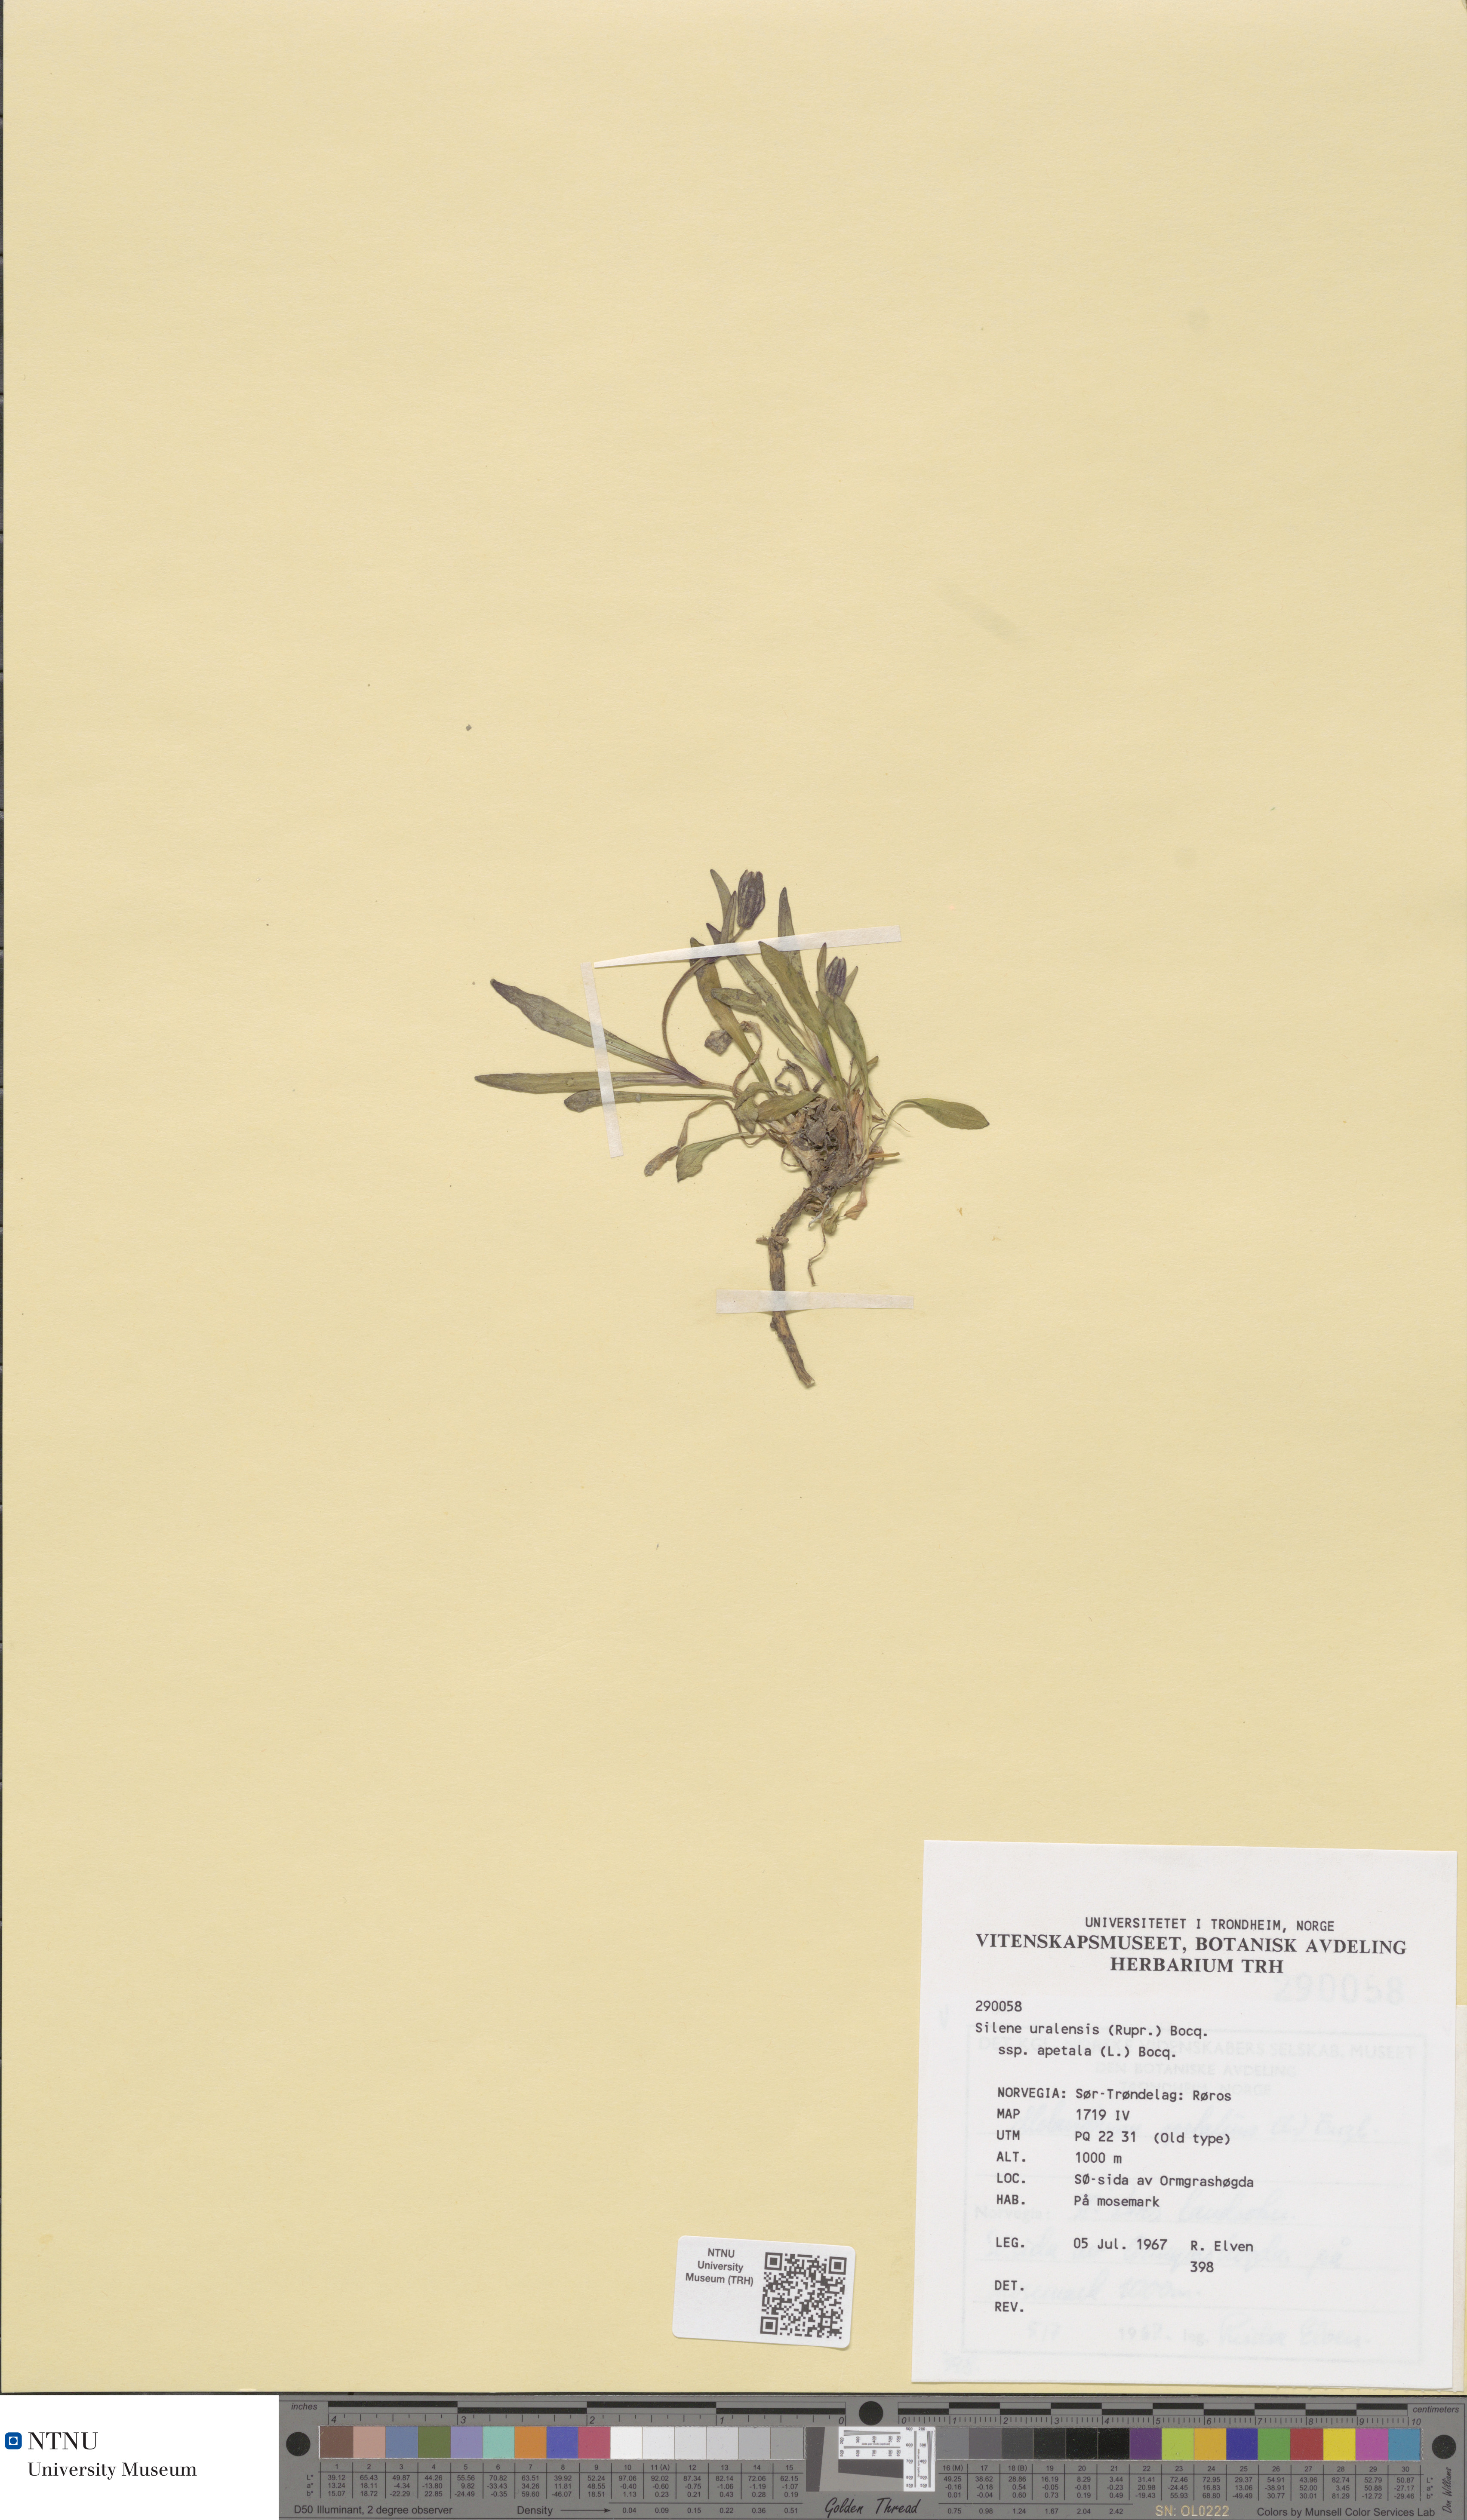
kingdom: Plantae
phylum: Tracheophyta
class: Magnoliopsida
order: Caryophyllales
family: Caryophyllaceae
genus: Silene
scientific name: Silene wahlbergella
